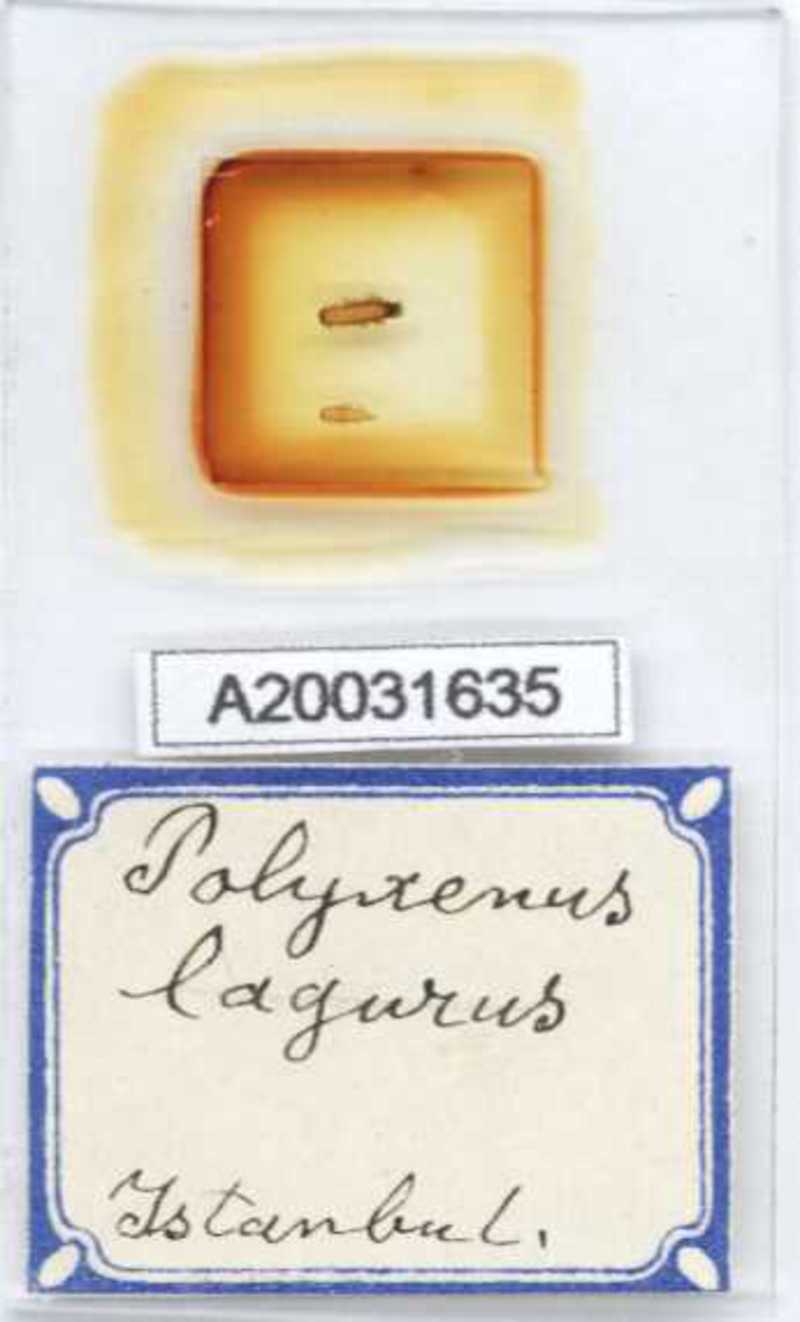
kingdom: Animalia
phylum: Arthropoda
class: Diplopoda
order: Polyxenida
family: Polyxenidae
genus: Polyxenus
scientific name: Polyxenus lagurus
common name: Bristly millipede
